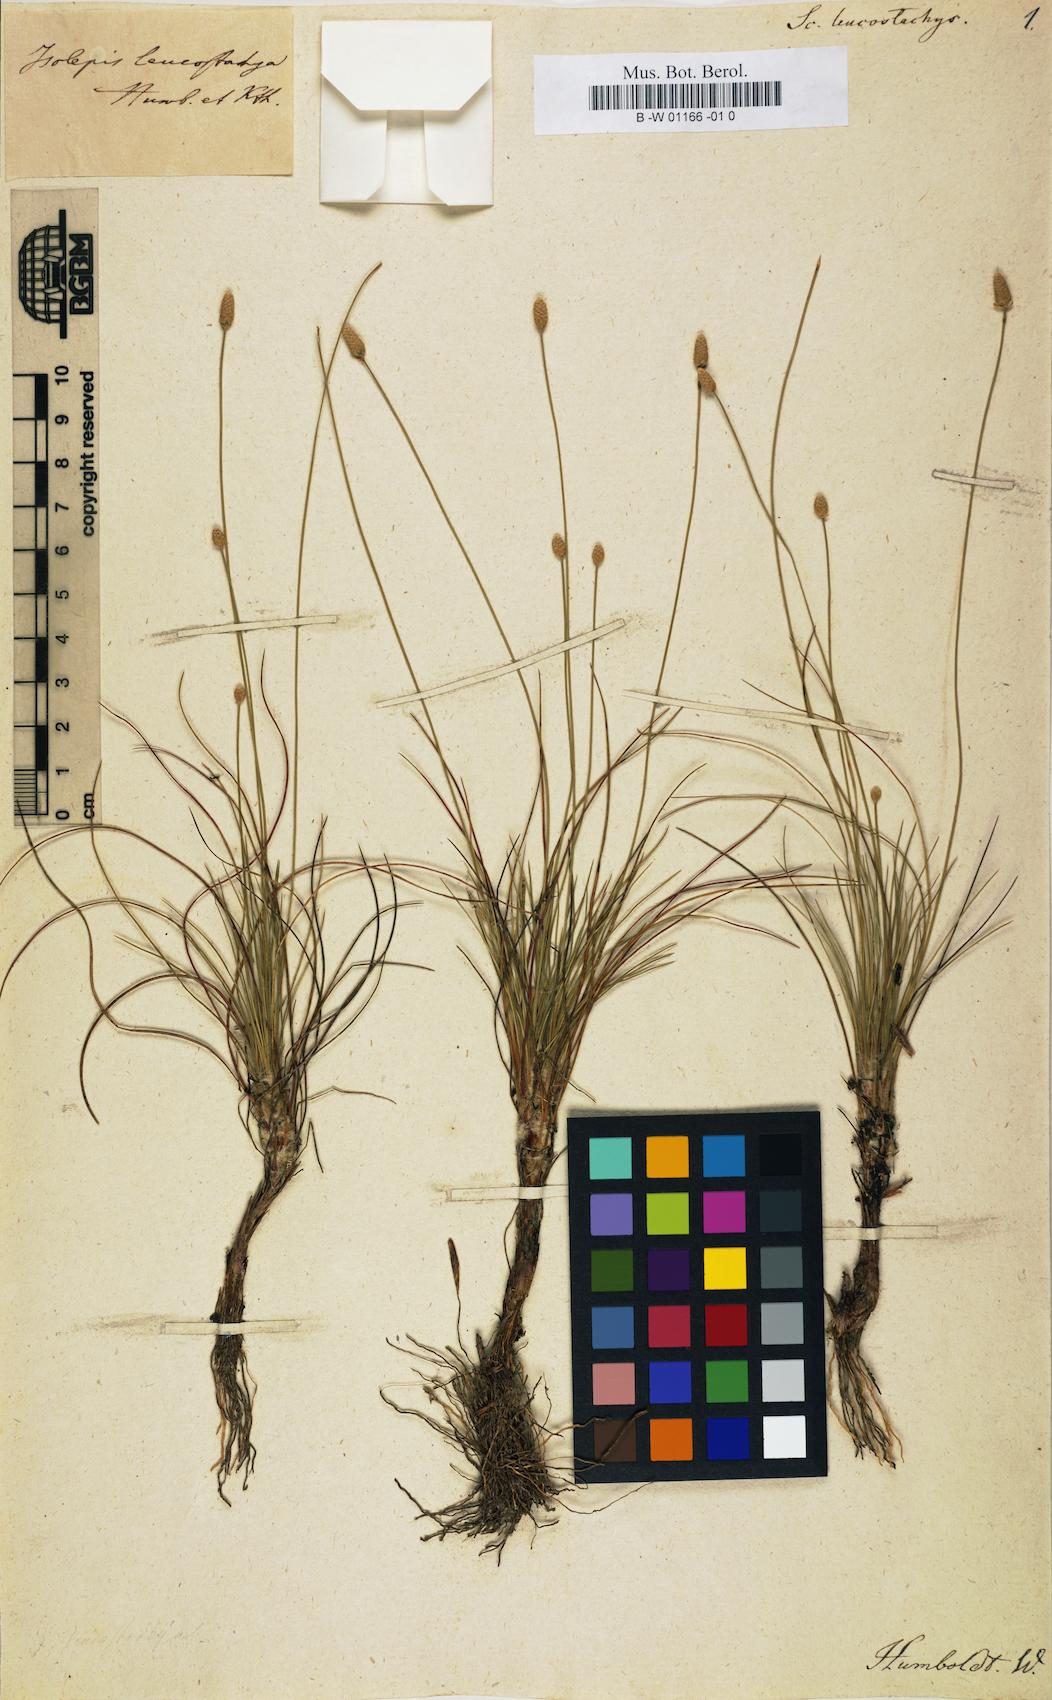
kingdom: Plantae
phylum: Tracheophyta
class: Liliopsida
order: Poales
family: Cyperaceae
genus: Bulbostylis
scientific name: Bulbostylis leucostachya
